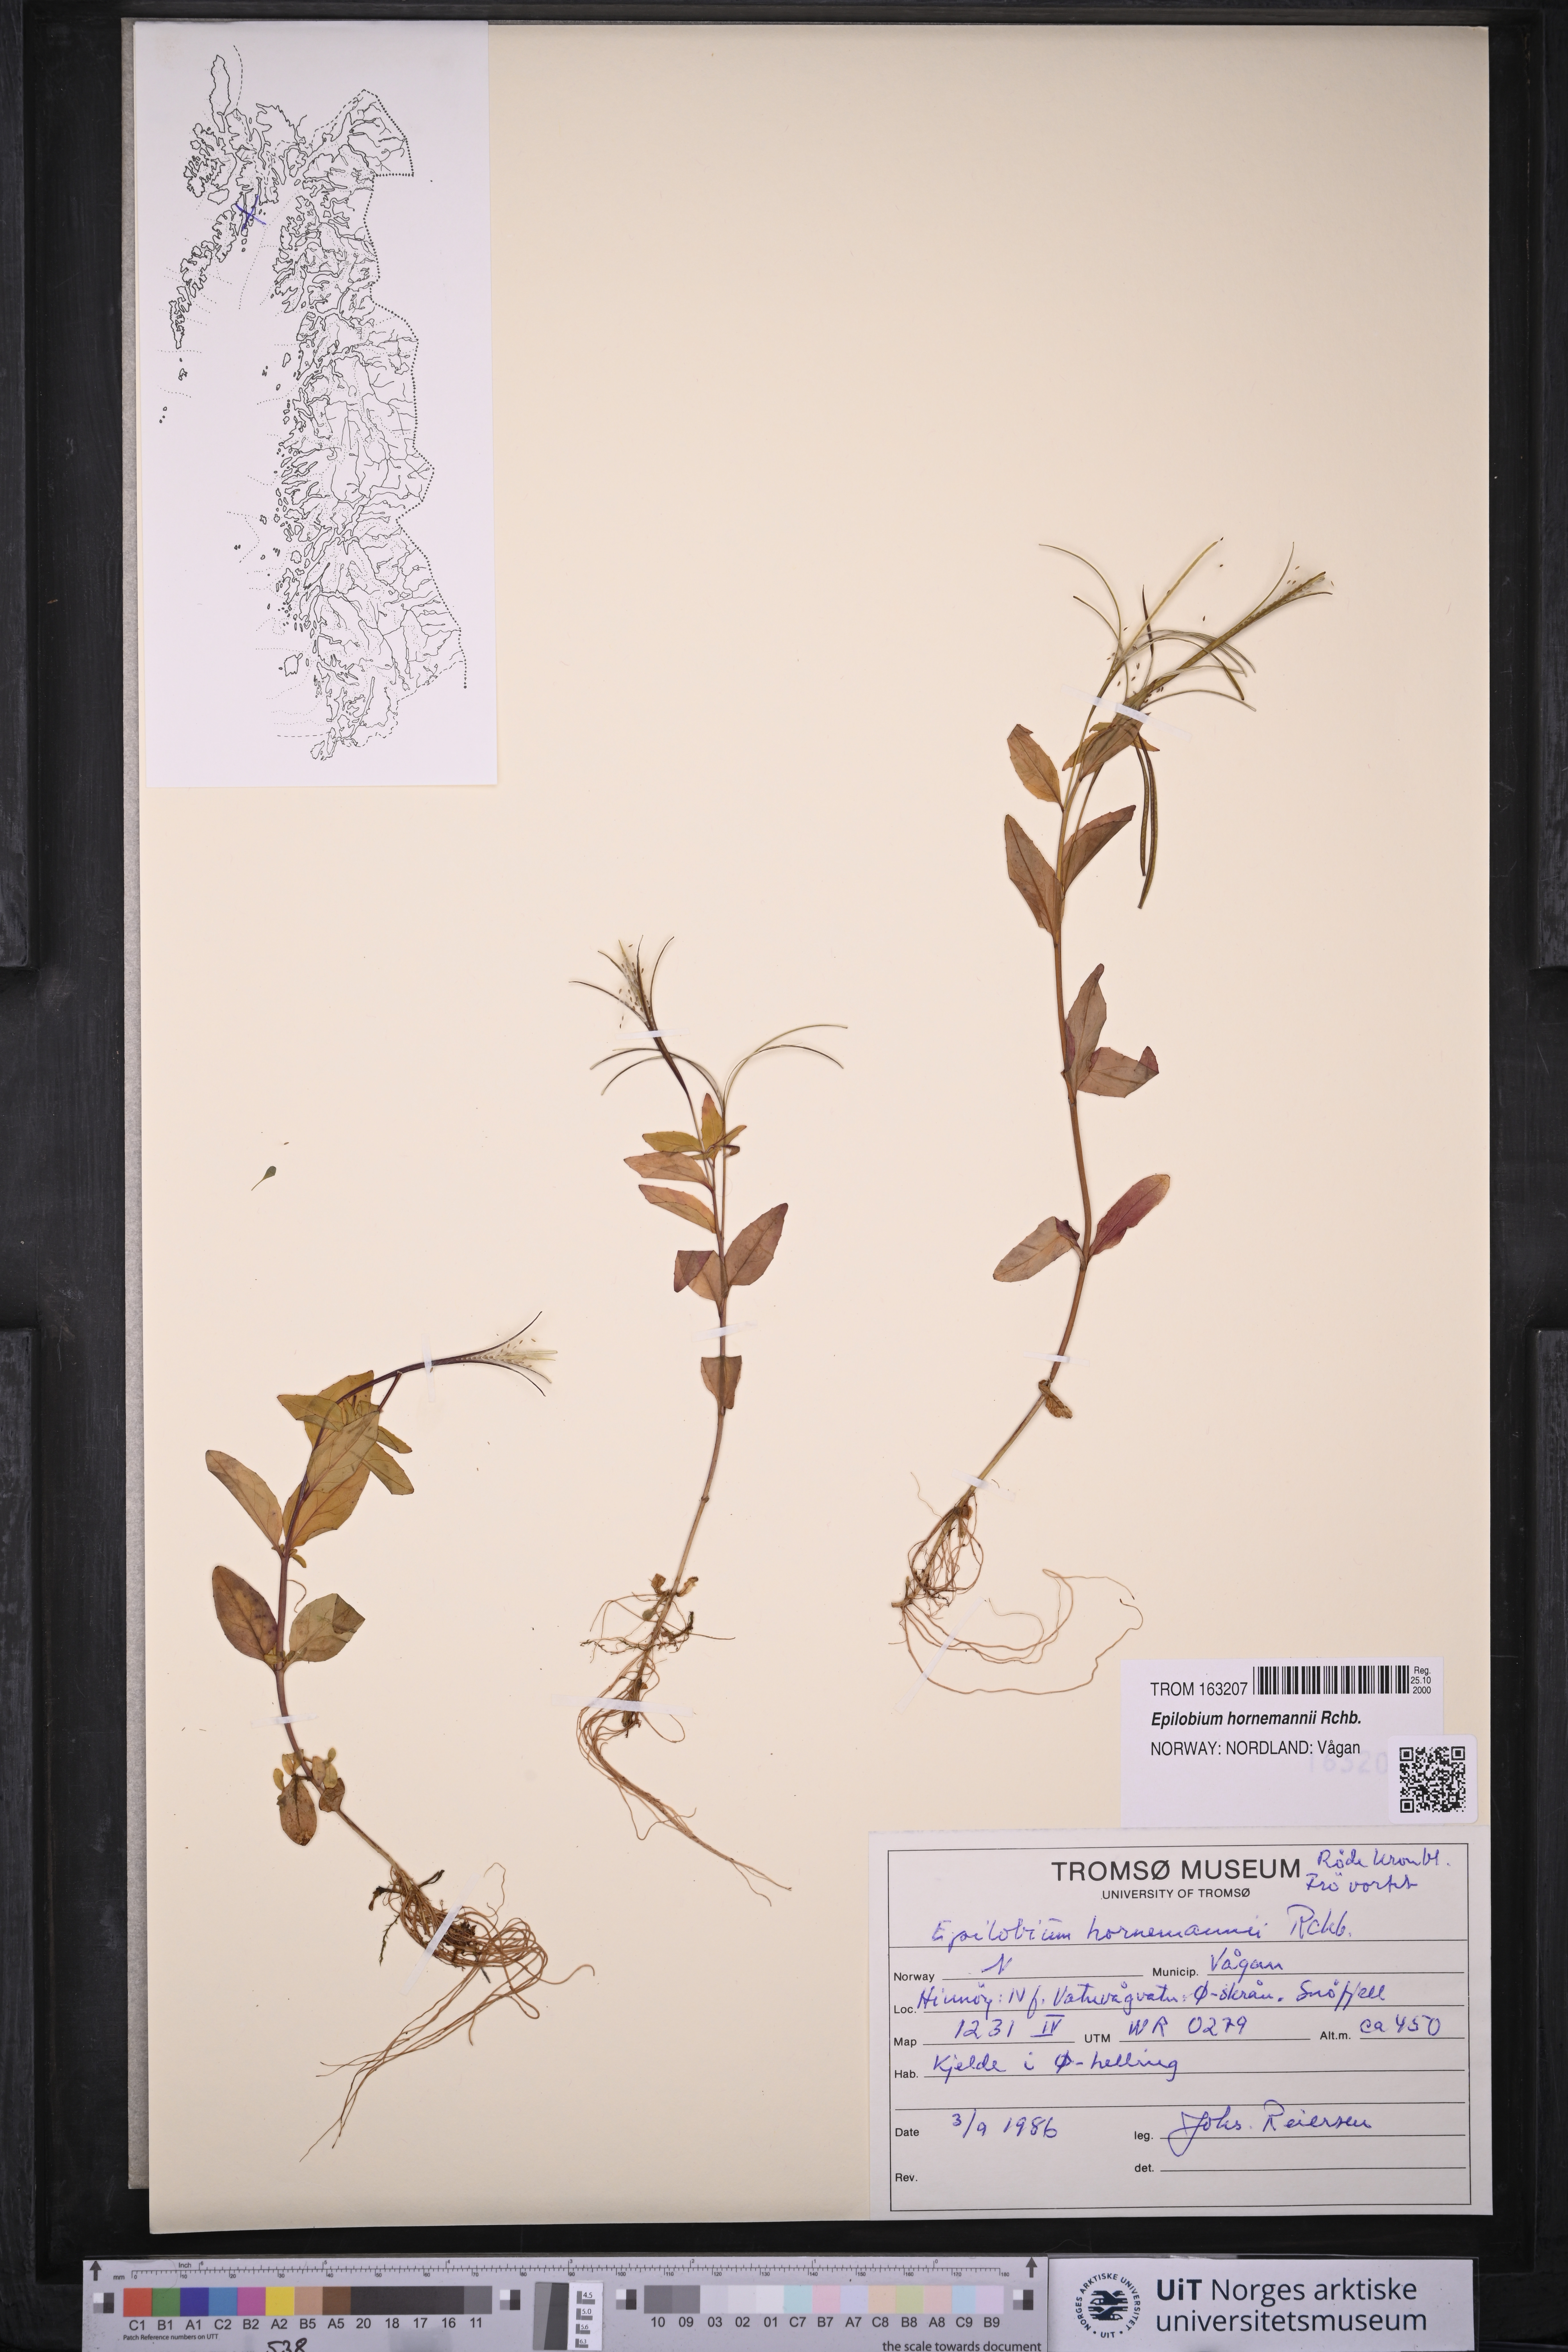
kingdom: Plantae
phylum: Tracheophyta
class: Magnoliopsida
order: Myrtales
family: Onagraceae
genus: Epilobium
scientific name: Epilobium hornemannii
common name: Hornemann's willowherb
